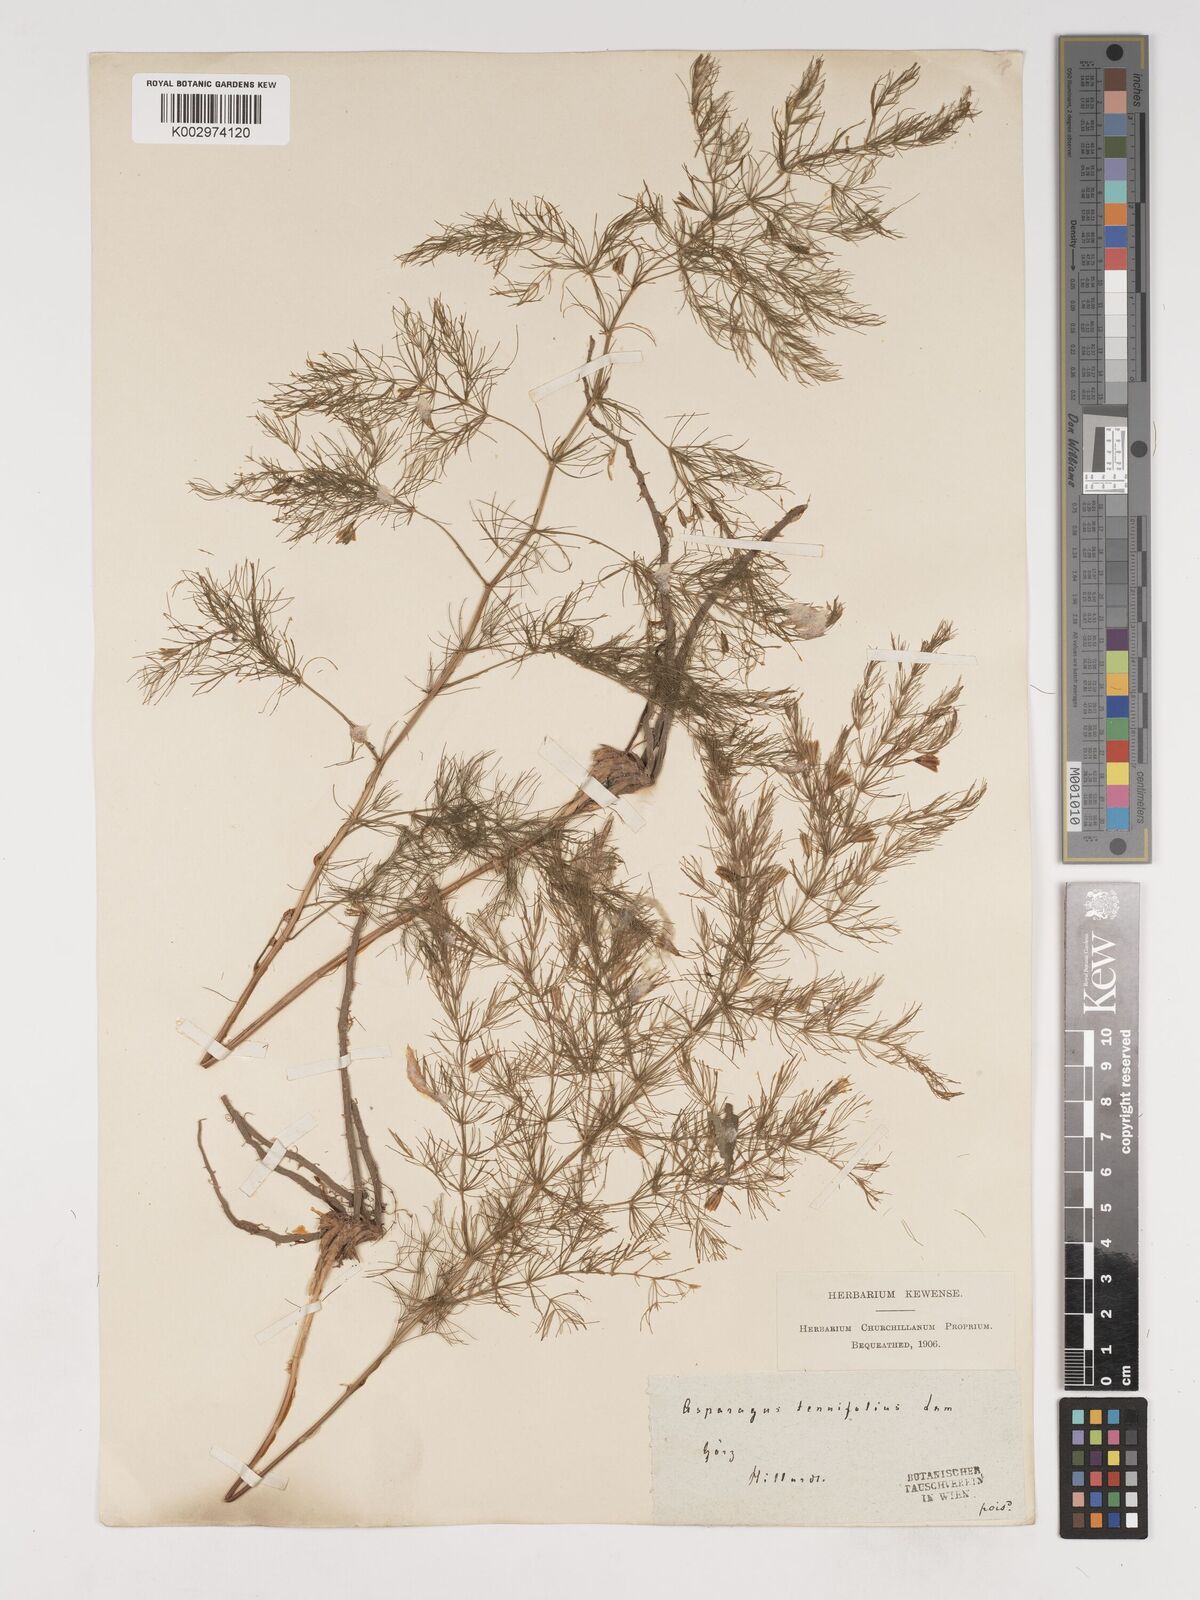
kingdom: Plantae
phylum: Tracheophyta
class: Liliopsida
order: Asparagales
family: Asparagaceae
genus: Asparagus
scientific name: Asparagus tenuifolius
